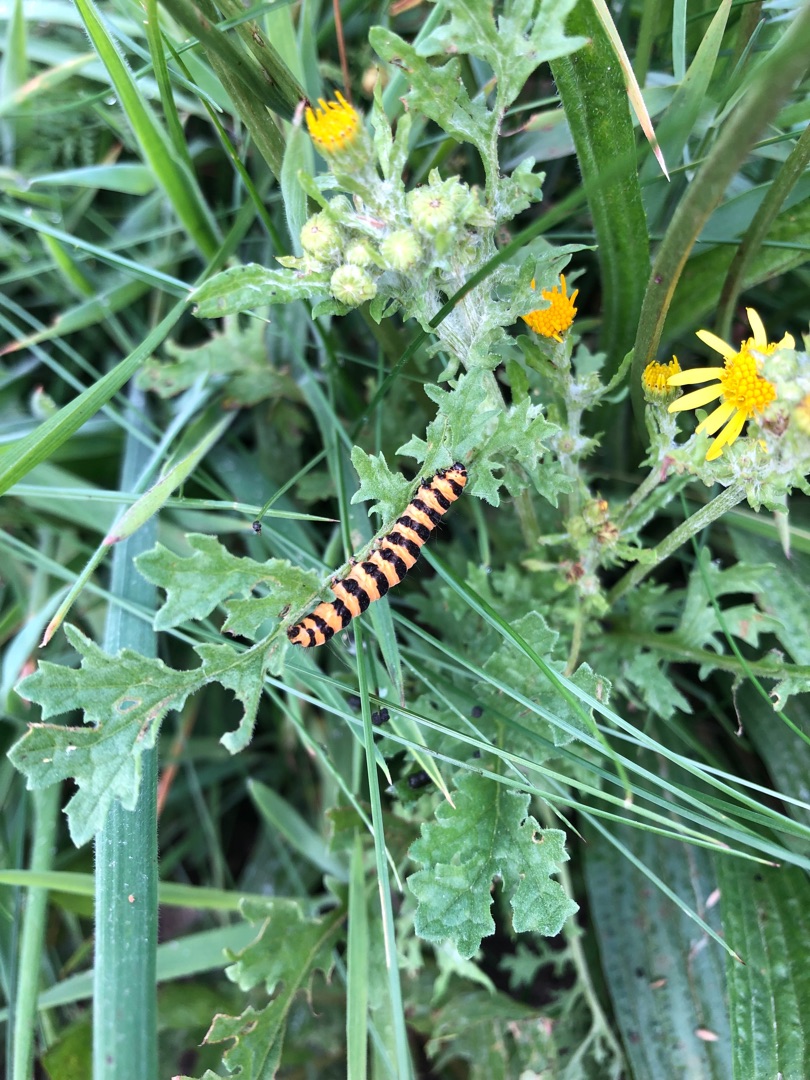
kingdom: Animalia
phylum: Arthropoda
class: Insecta
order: Lepidoptera
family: Erebidae
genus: Tyria
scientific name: Tyria jacobaeae
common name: Blodplet
